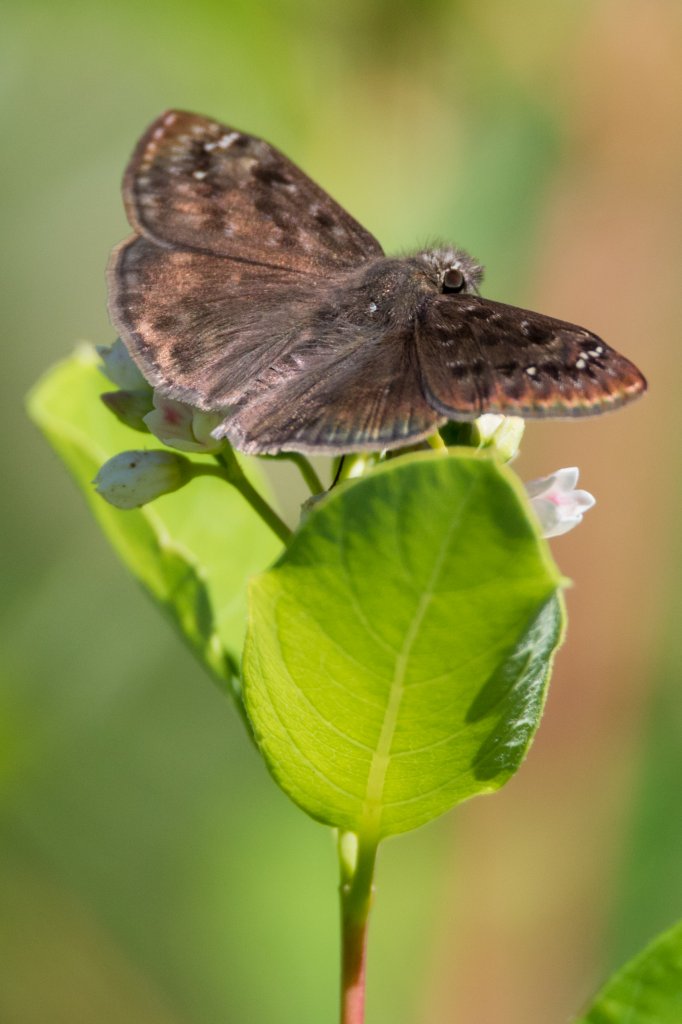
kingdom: Animalia
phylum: Arthropoda
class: Insecta
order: Lepidoptera
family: Hesperiidae
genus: Gesta
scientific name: Gesta
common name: Wild Indigo Duskywing
